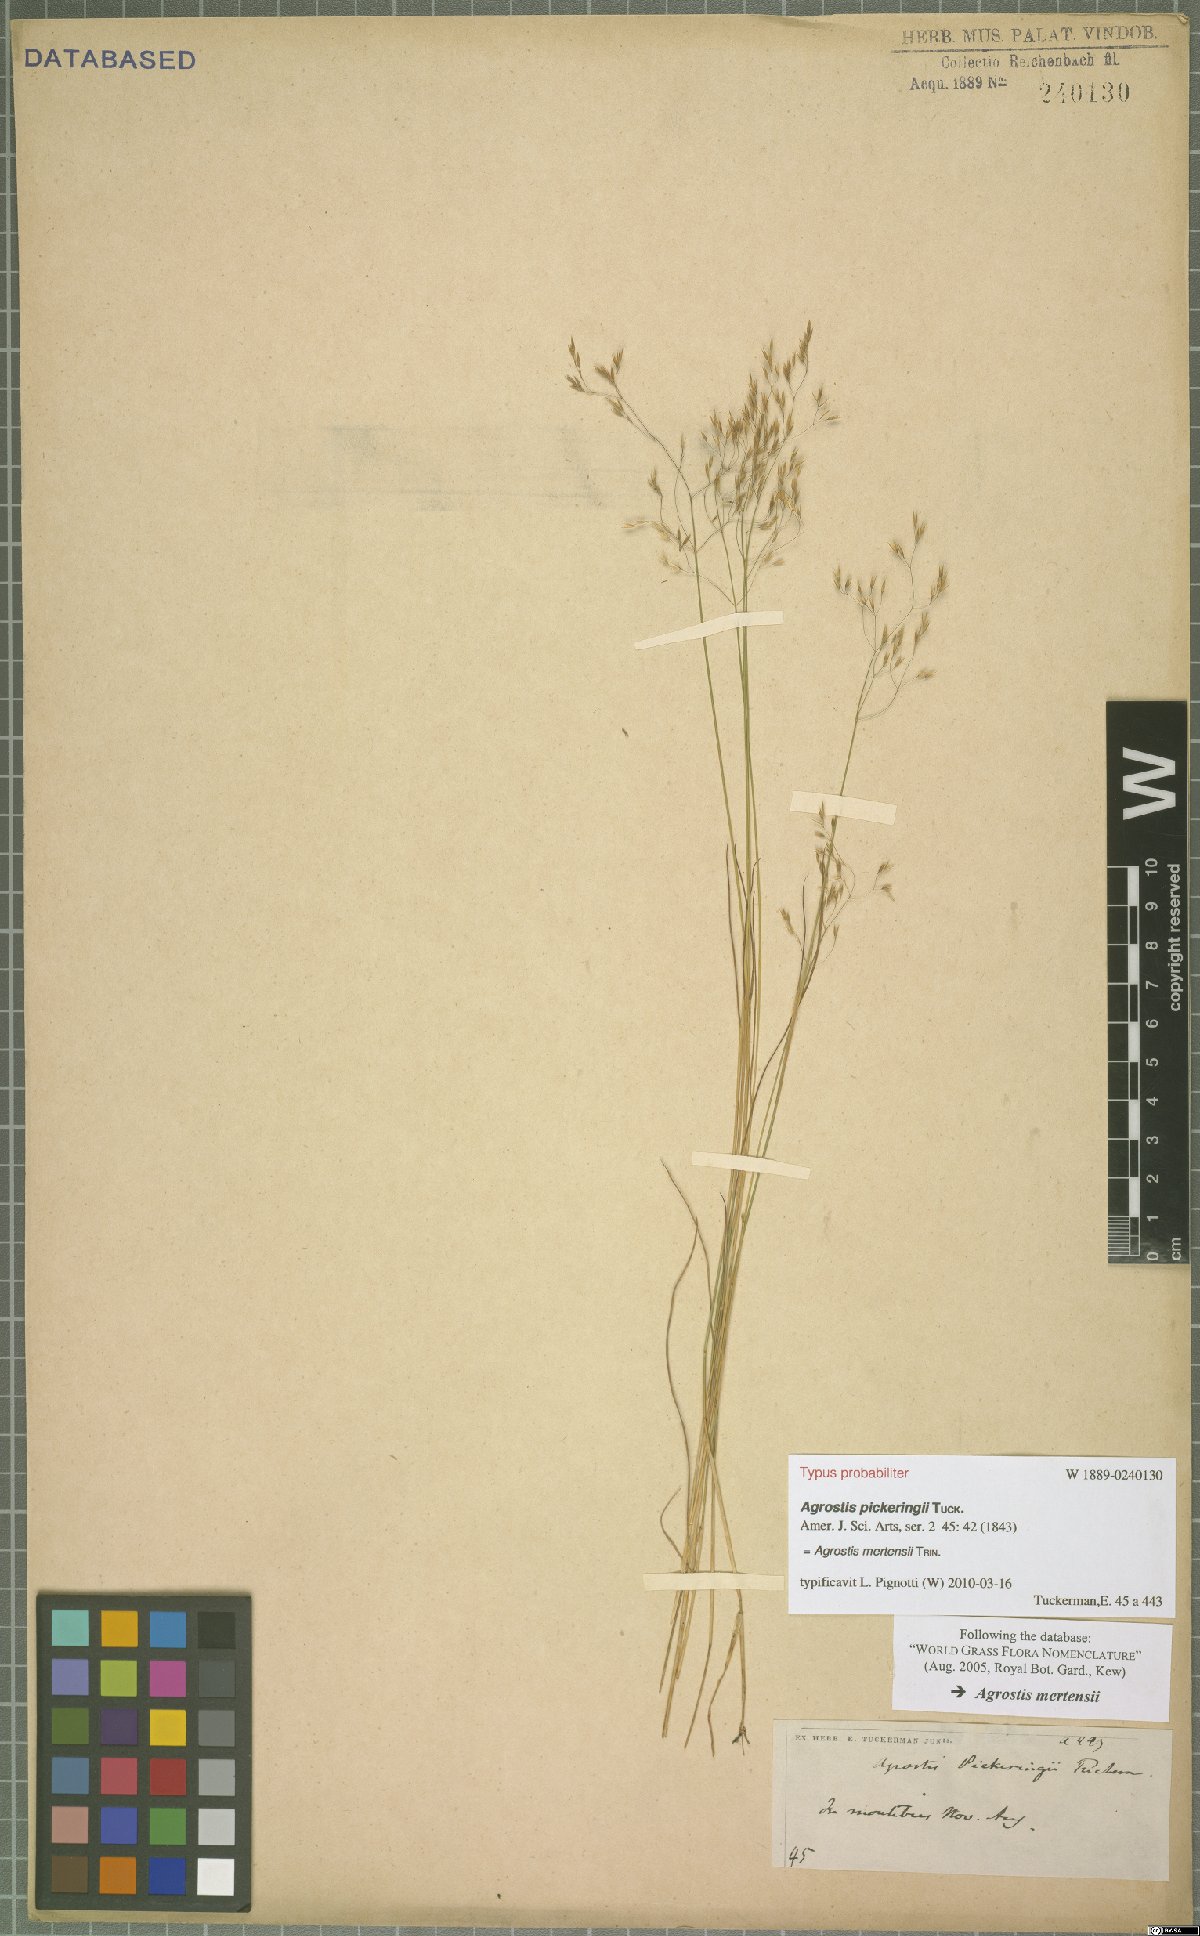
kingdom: Plantae
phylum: Tracheophyta
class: Liliopsida
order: Poales
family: Poaceae
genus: Agrostis
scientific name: Agrostis mertensii
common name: Northern bent
